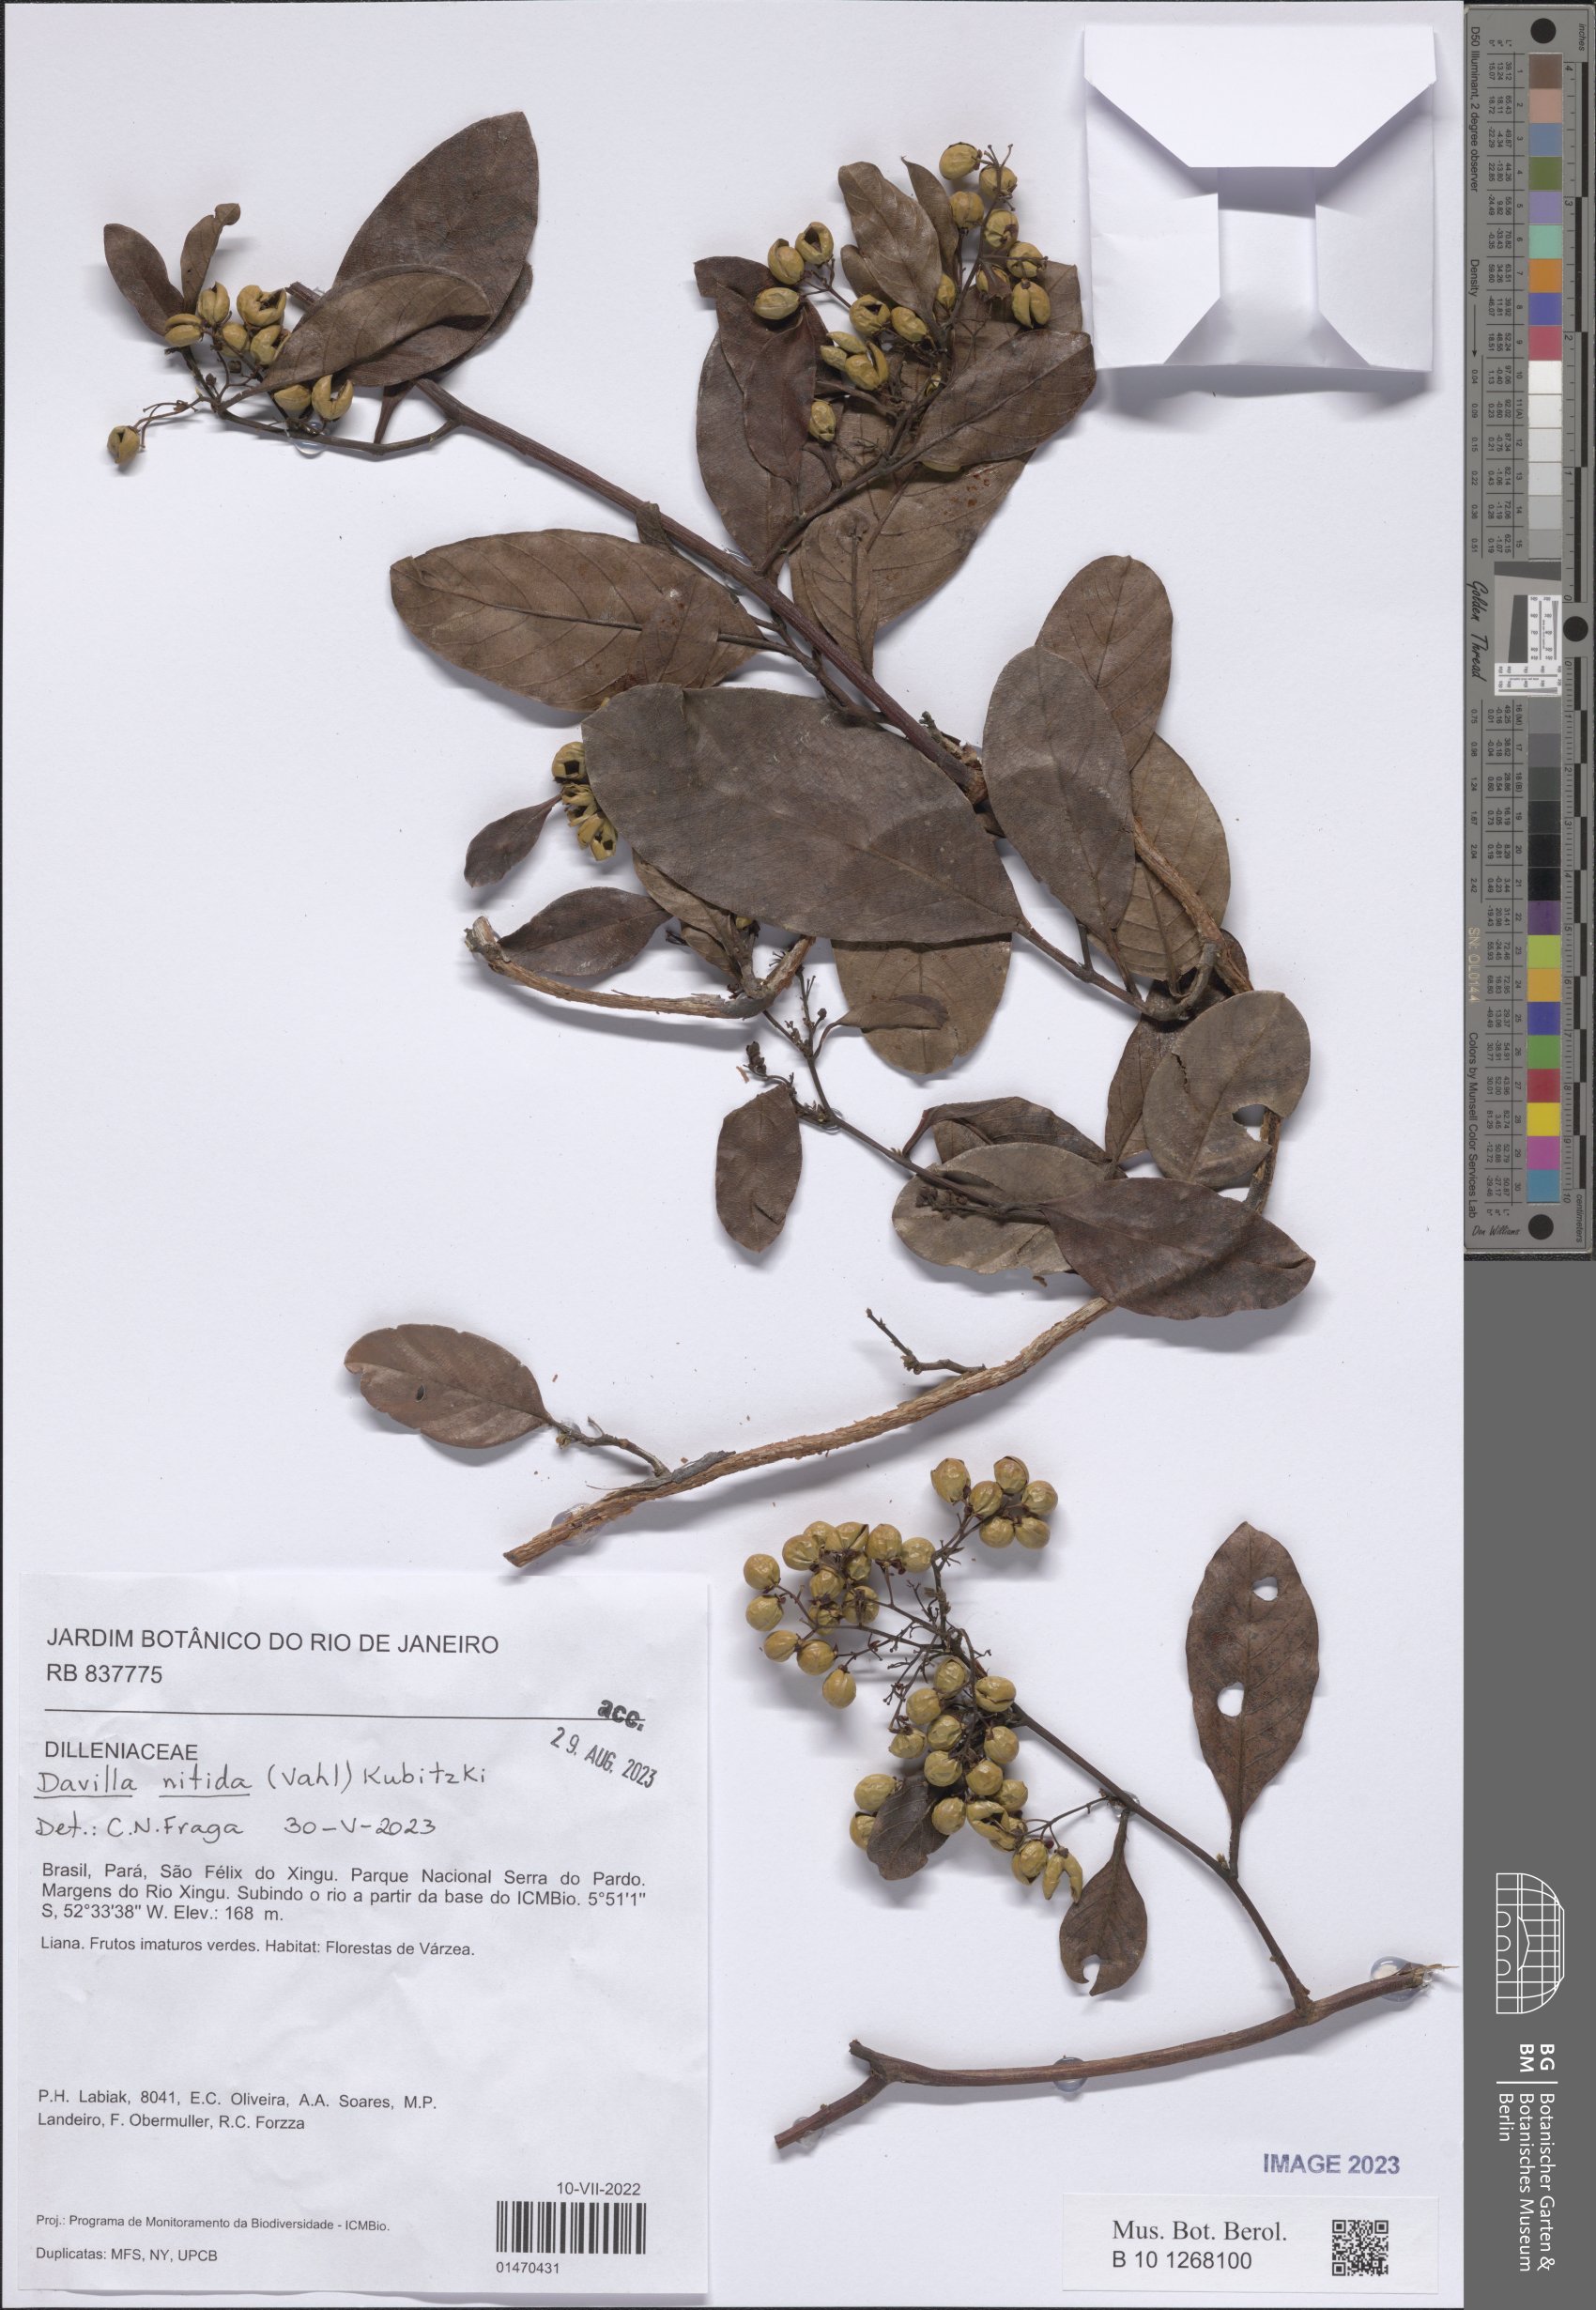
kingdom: Plantae
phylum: Tracheophyta
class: Magnoliopsida
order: Dilleniales
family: Dilleniaceae
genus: Davilla
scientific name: Davilla nitida
